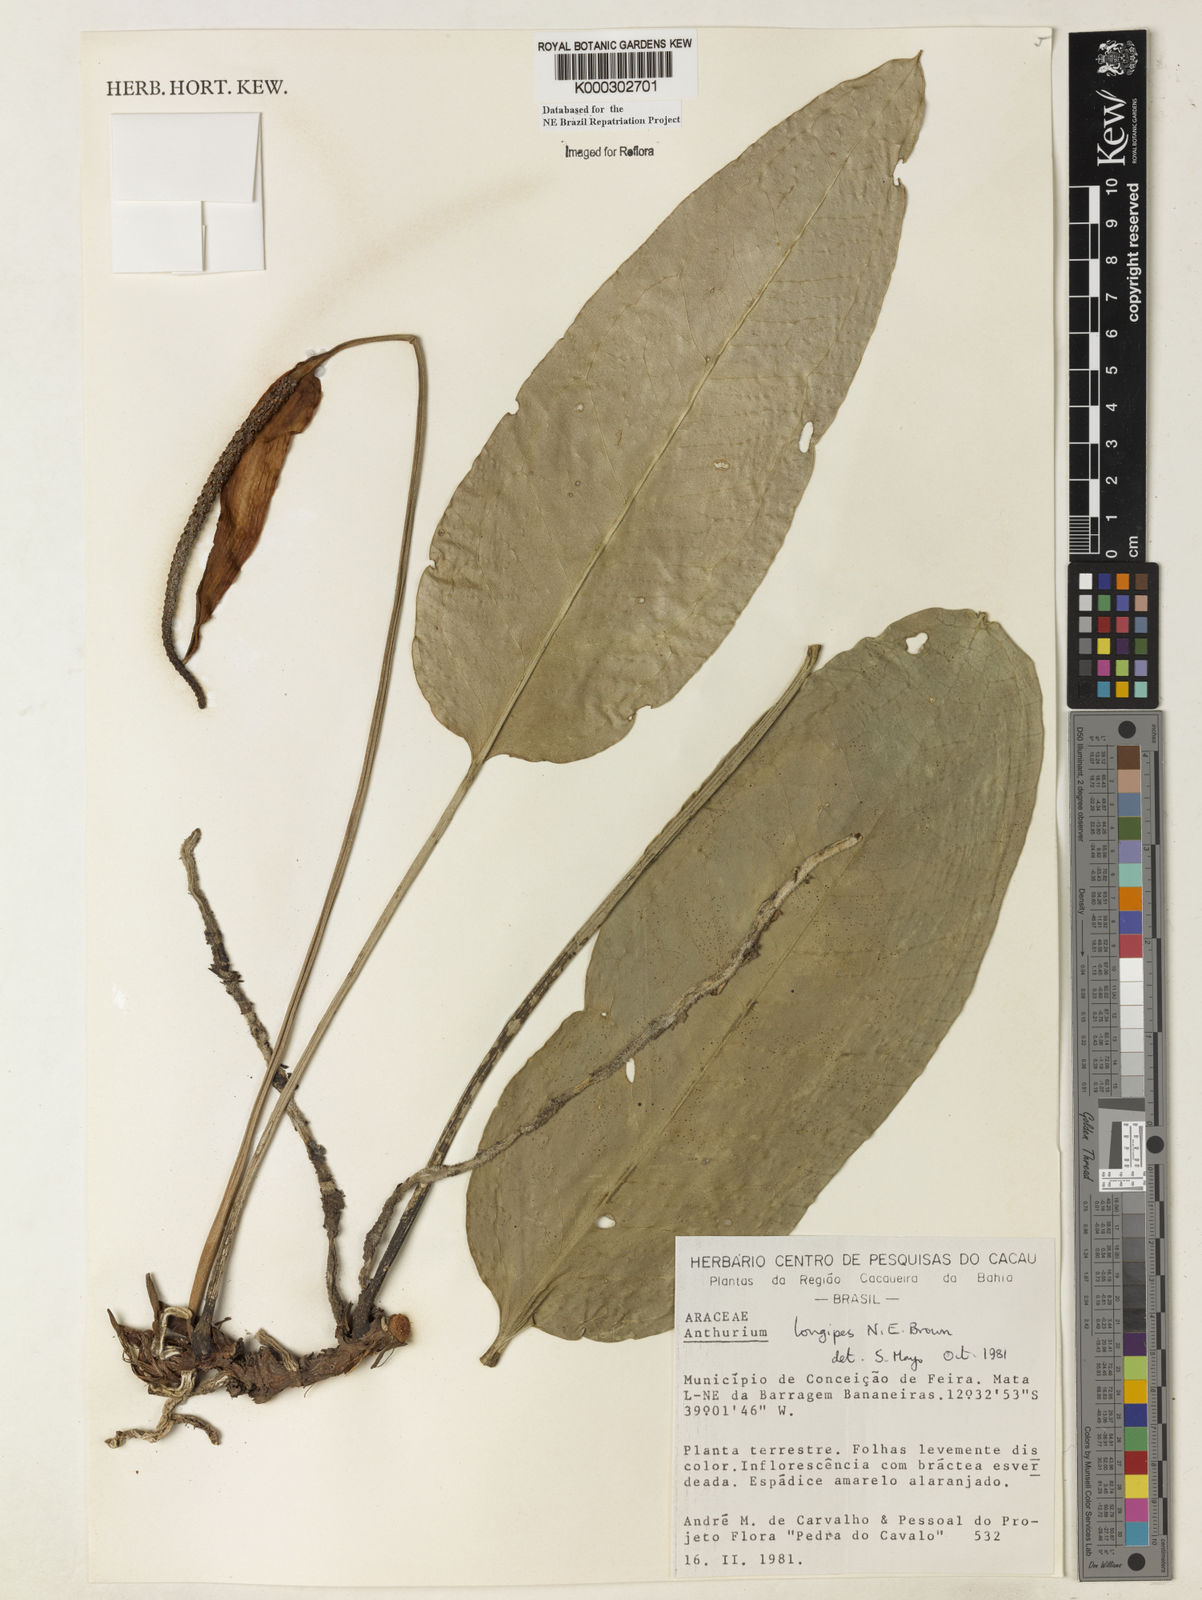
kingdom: Plantae
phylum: Tracheophyta
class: Liliopsida
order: Alismatales
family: Araceae
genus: Anthurium
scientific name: Anthurium longipes
